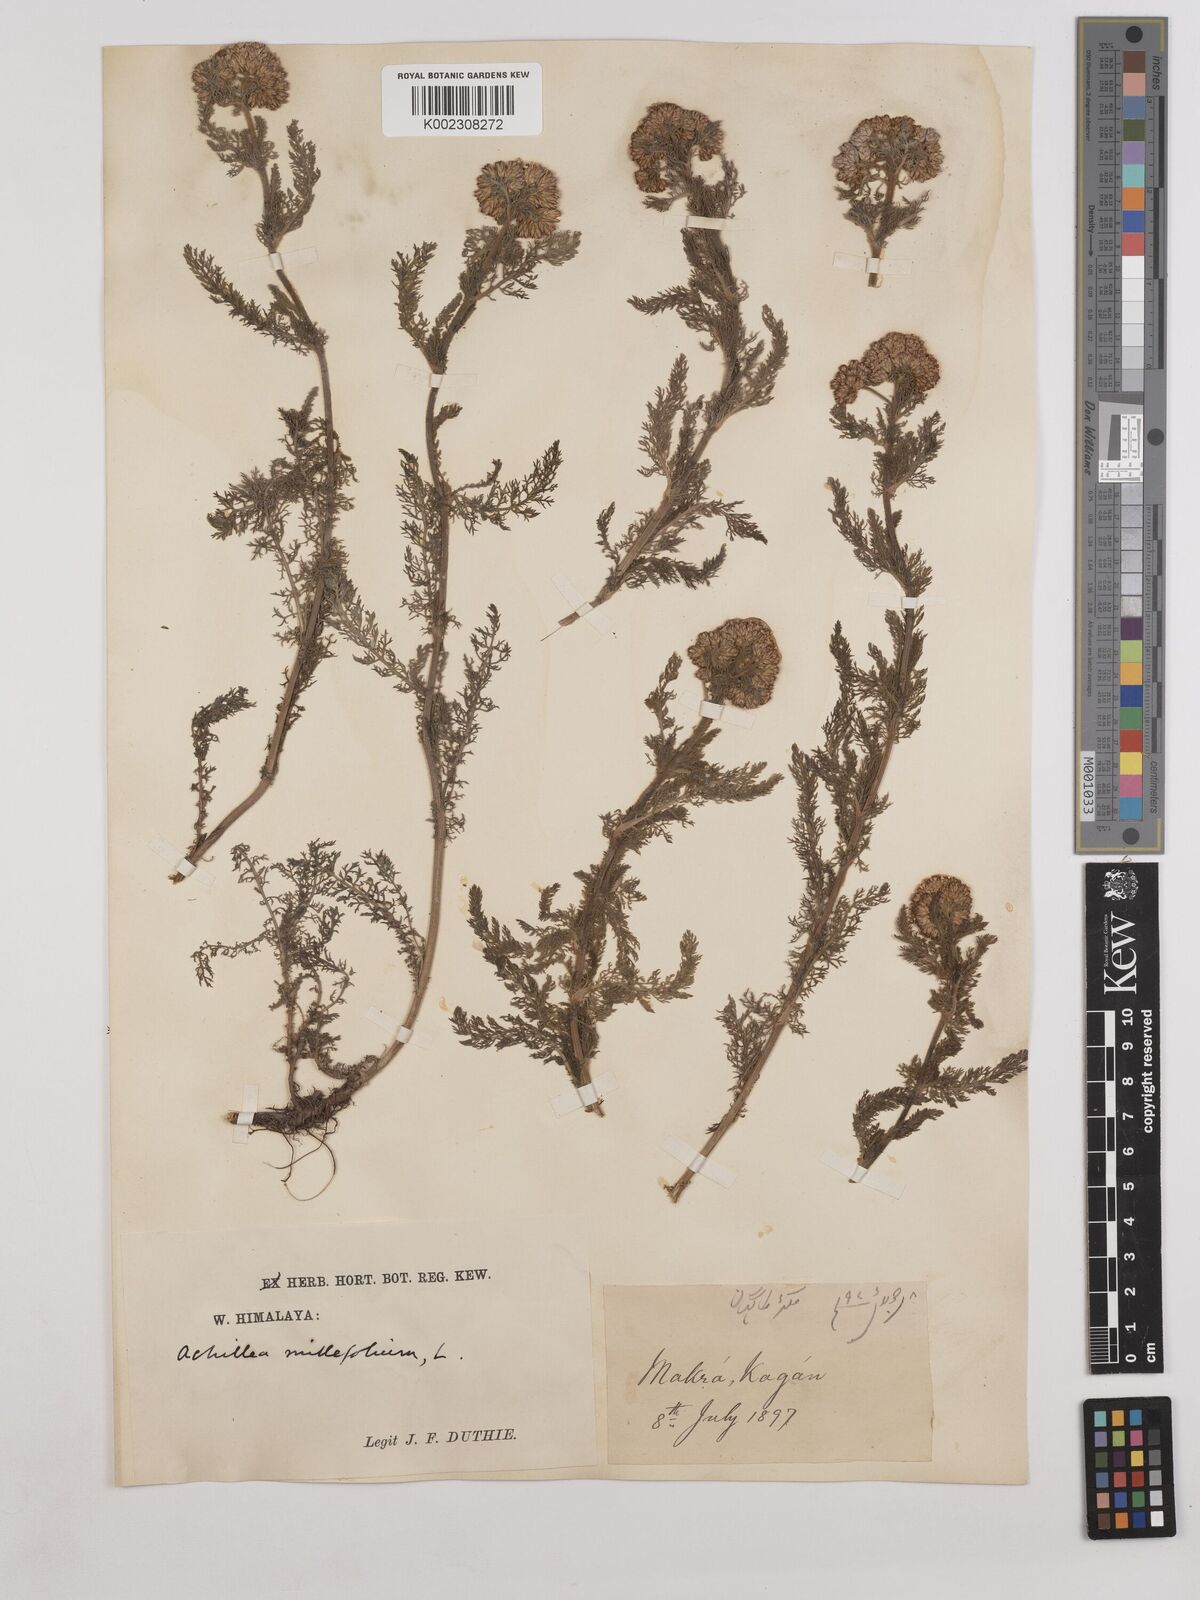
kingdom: Plantae
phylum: Tracheophyta
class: Magnoliopsida
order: Asterales
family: Asteraceae
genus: Achillea
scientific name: Achillea millefolium
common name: Yarrow
